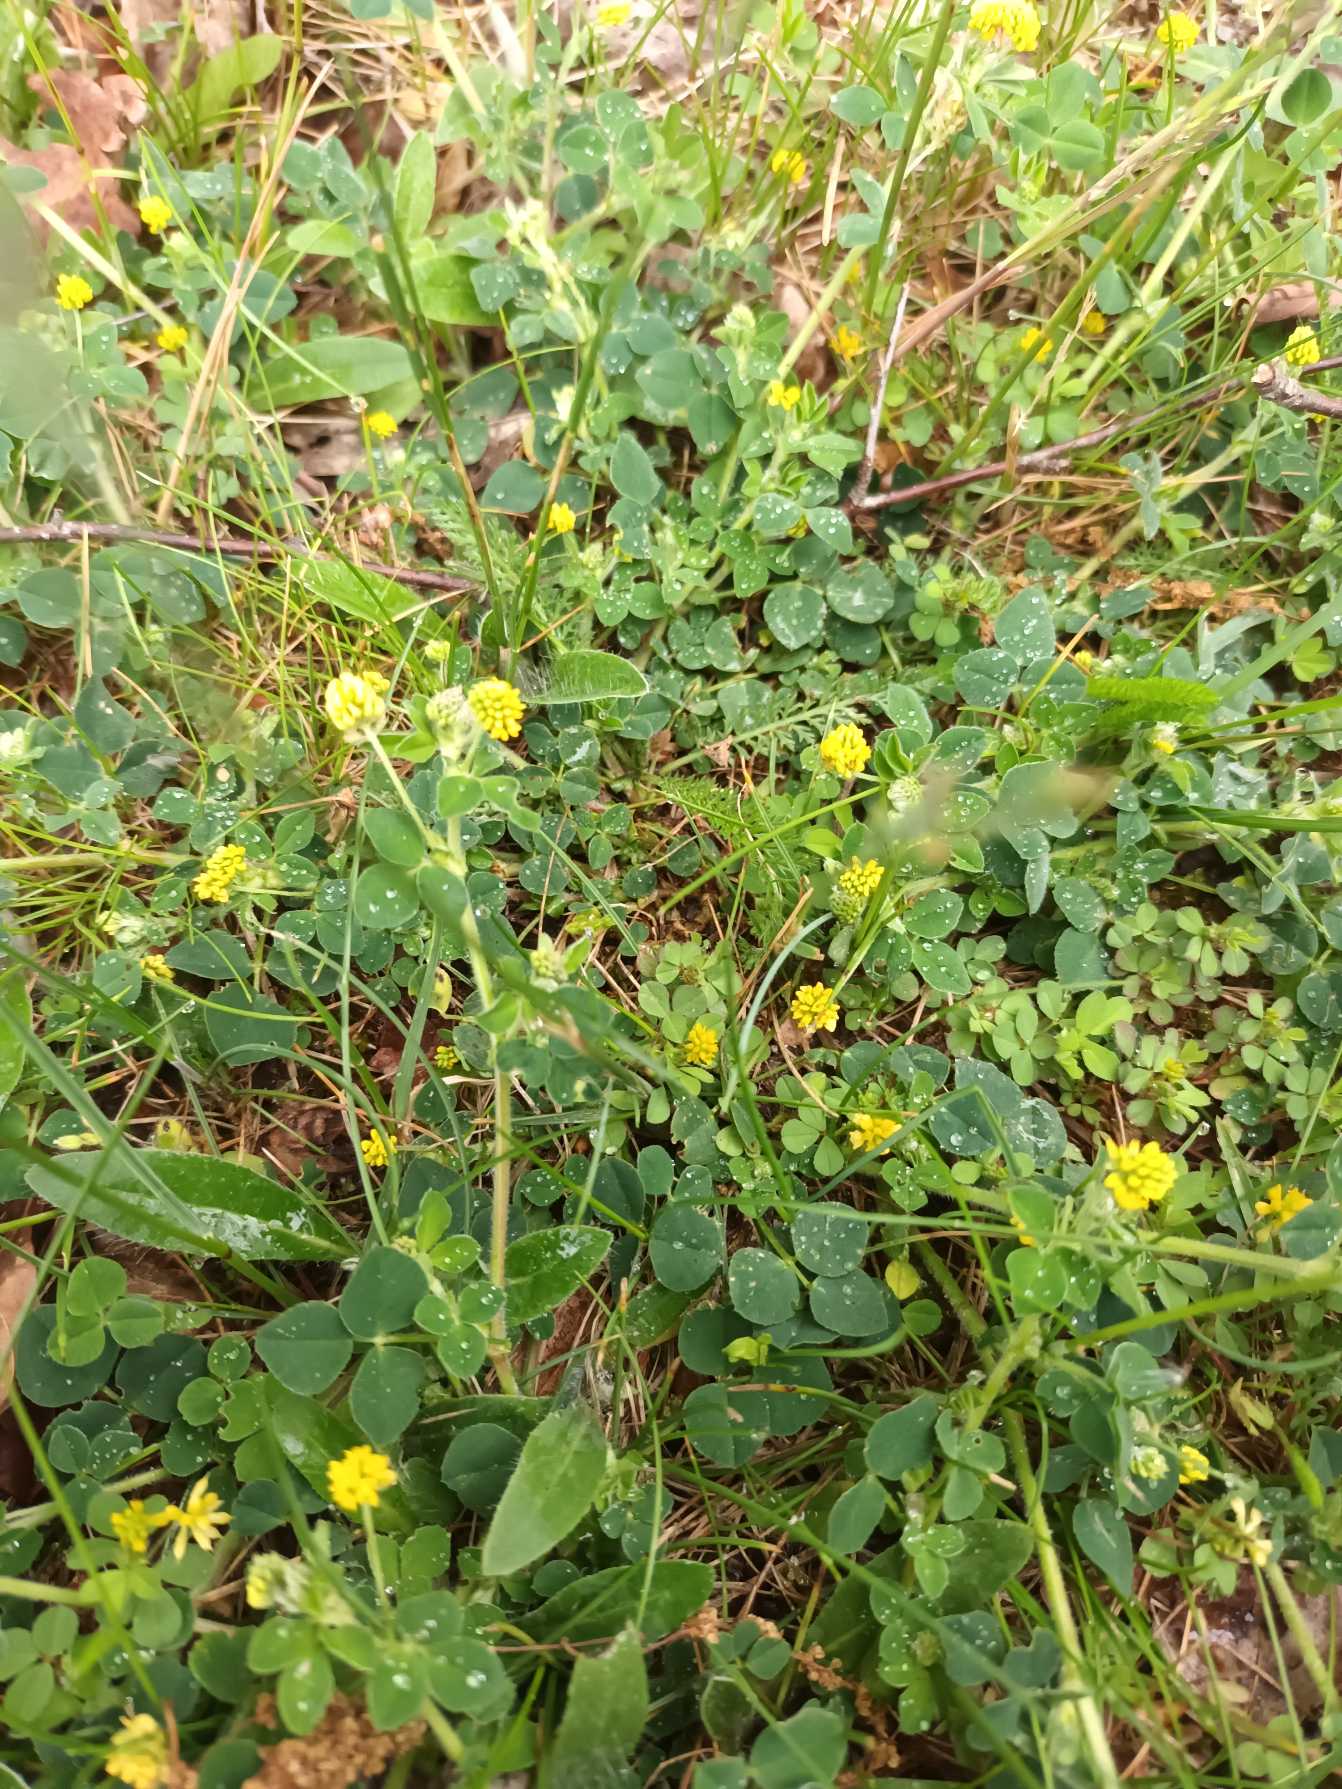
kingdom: Plantae
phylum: Tracheophyta
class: Magnoliopsida
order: Fabales
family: Fabaceae
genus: Medicago
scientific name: Medicago lupulina
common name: Humle-sneglebælg
